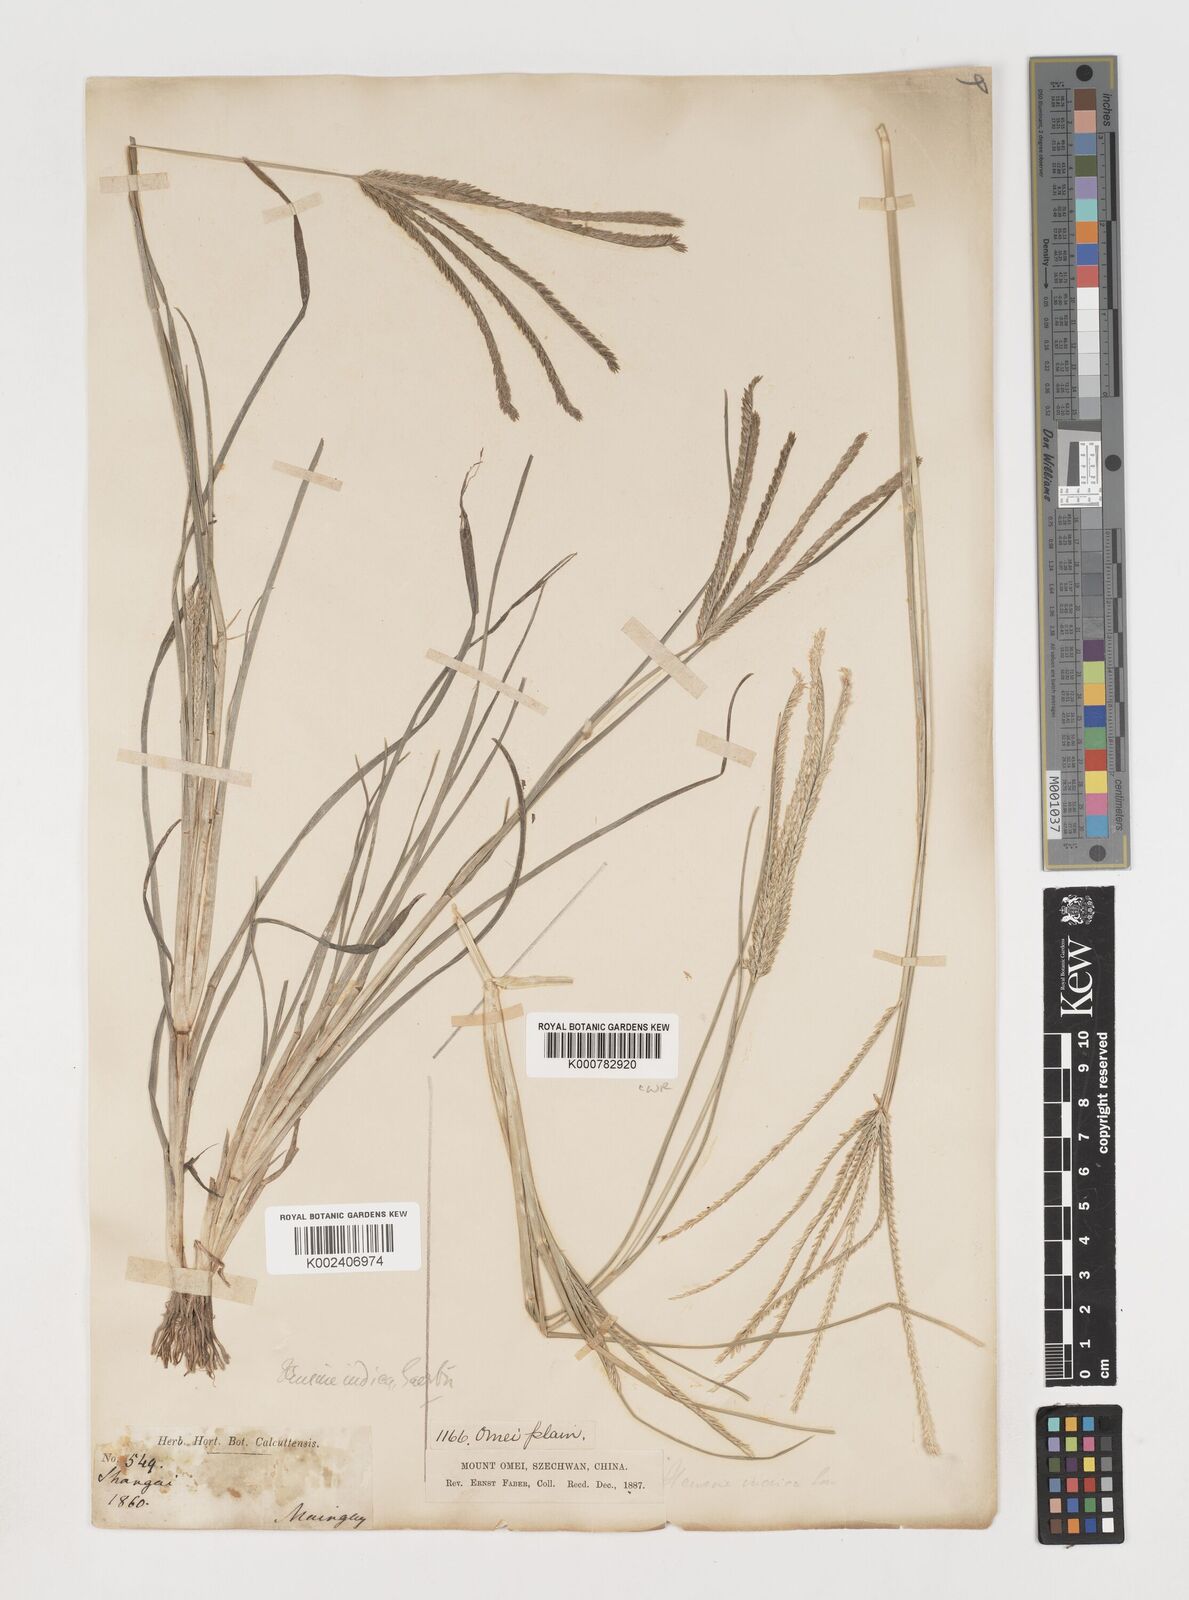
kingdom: Plantae
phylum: Tracheophyta
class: Liliopsida
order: Poales
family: Poaceae
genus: Eleusine
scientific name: Eleusine indica
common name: Yard-grass
